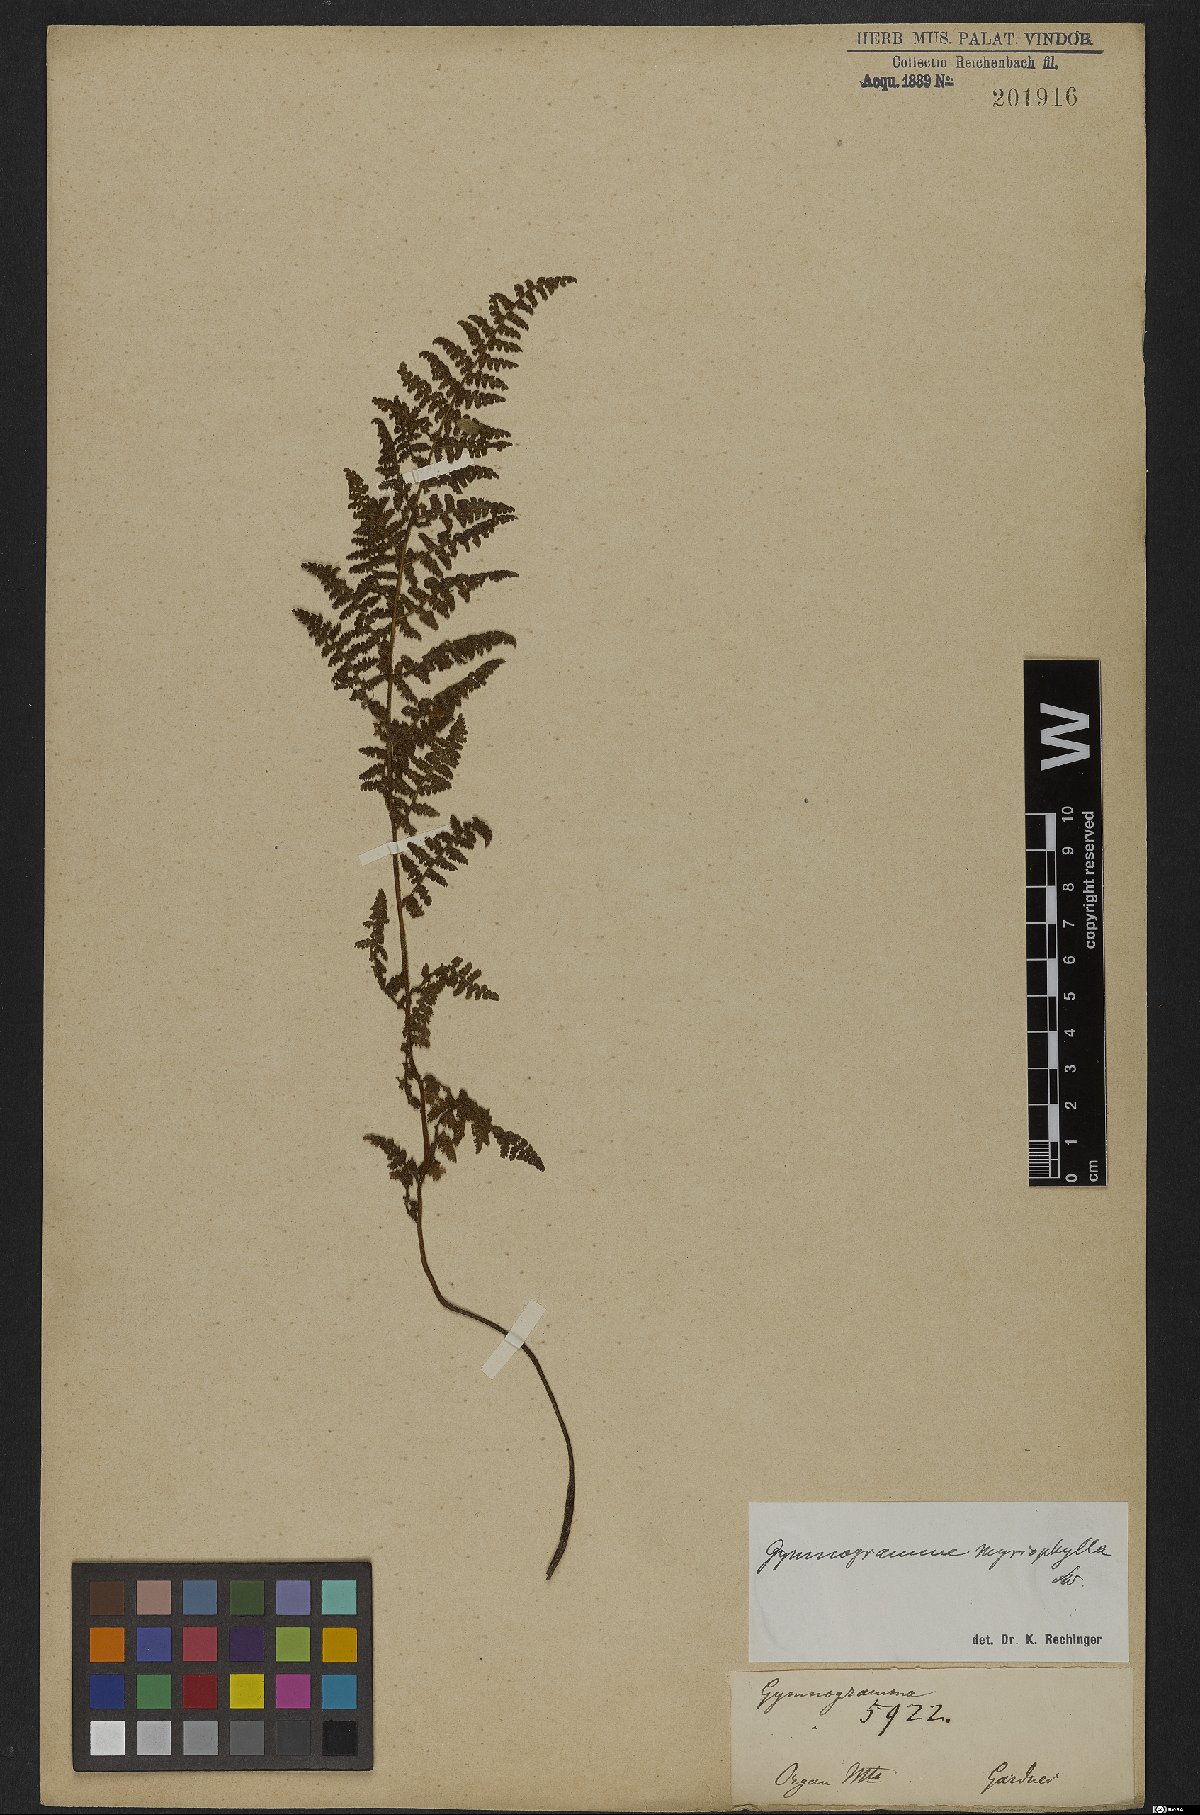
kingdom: Plantae
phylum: Tracheophyta
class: Polypodiopsida
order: Polypodiales
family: Pteridaceae
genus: Tryonia
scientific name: Tryonia myriophylla
